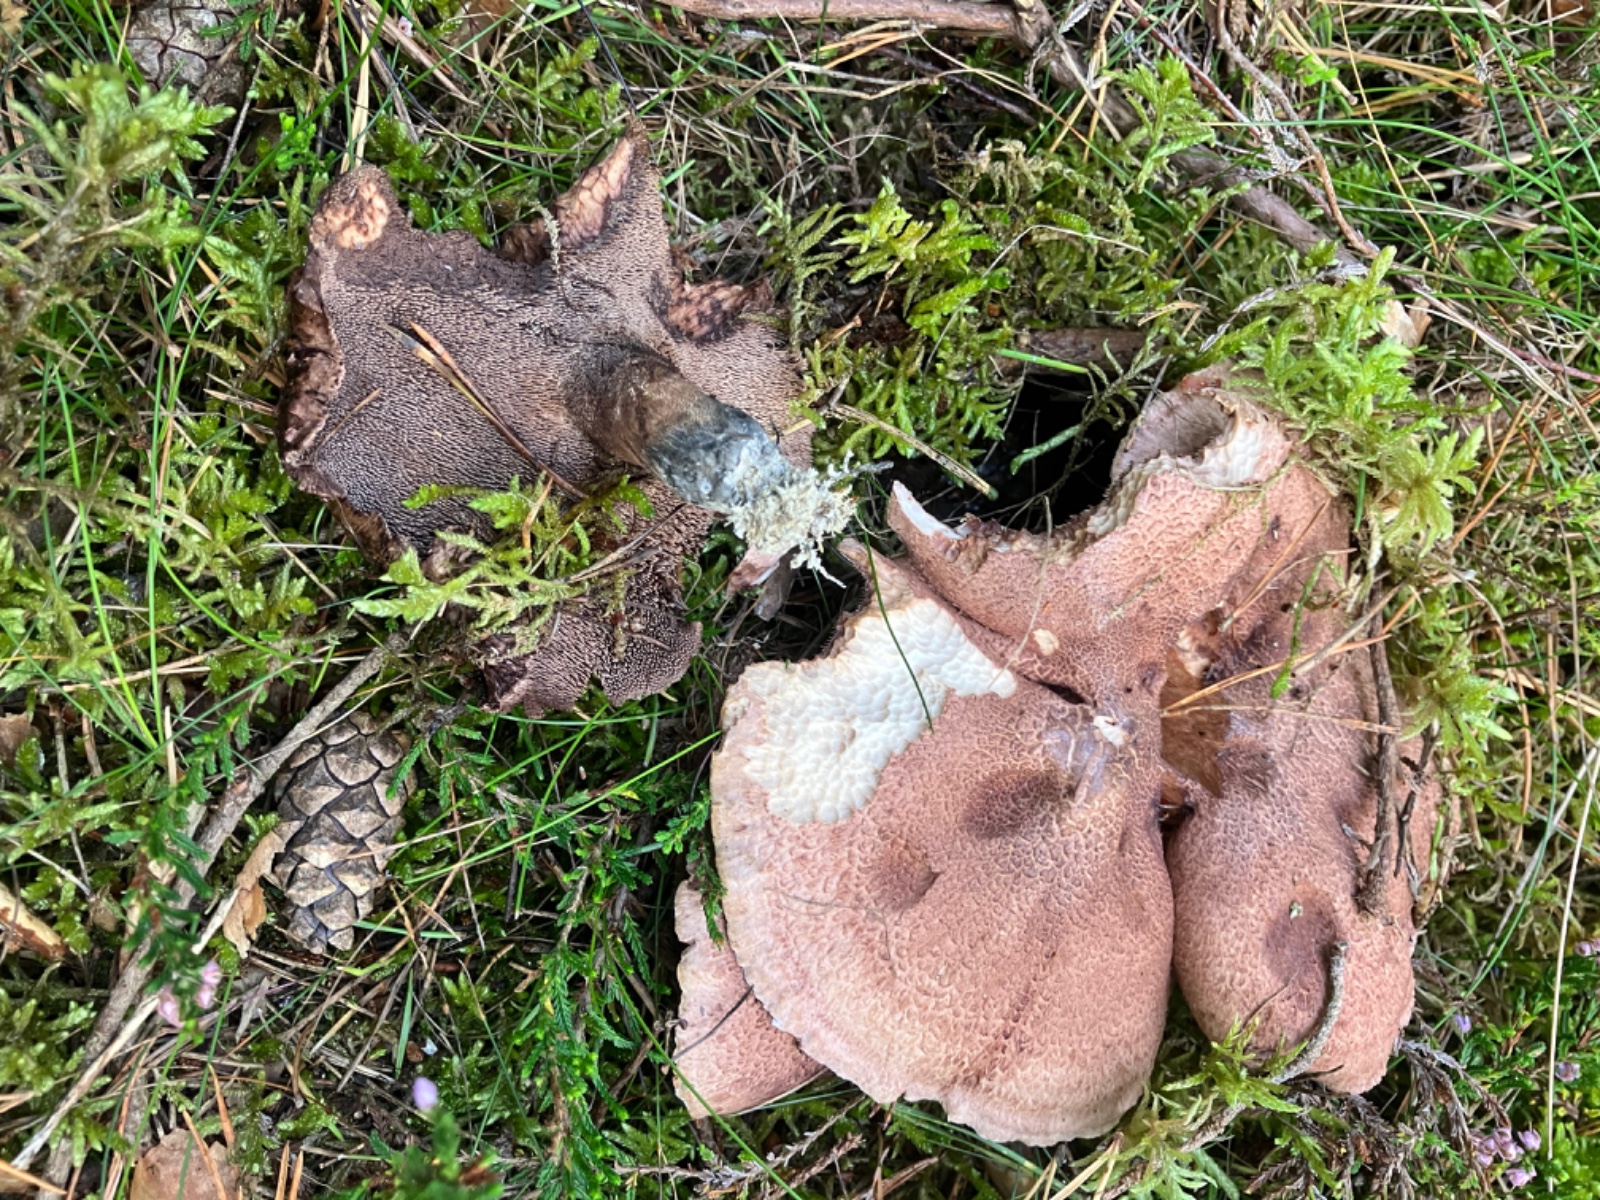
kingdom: Fungi
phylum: Basidiomycota
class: Agaricomycetes
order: Thelephorales
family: Bankeraceae
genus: Hydnellum
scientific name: Hydnellum scabrosum
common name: blåfodet korkpigsvamp
